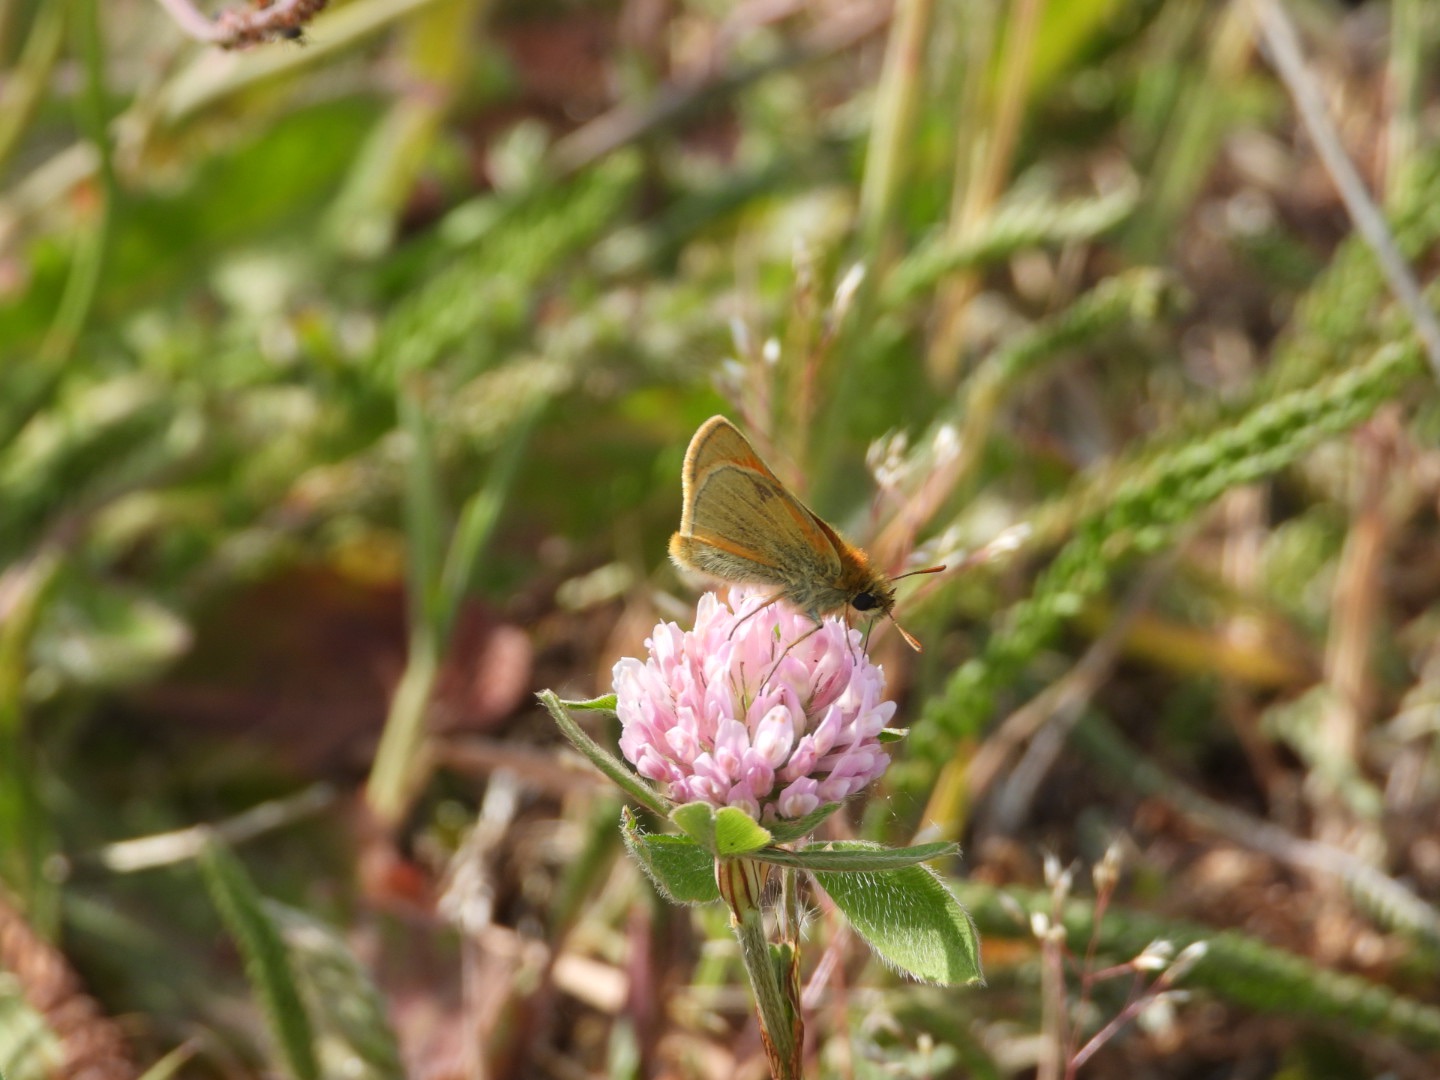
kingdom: Plantae
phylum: Tracheophyta
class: Magnoliopsida
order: Fabales
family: Fabaceae
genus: Trifolium
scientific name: Trifolium pratense
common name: Rød-kløver
